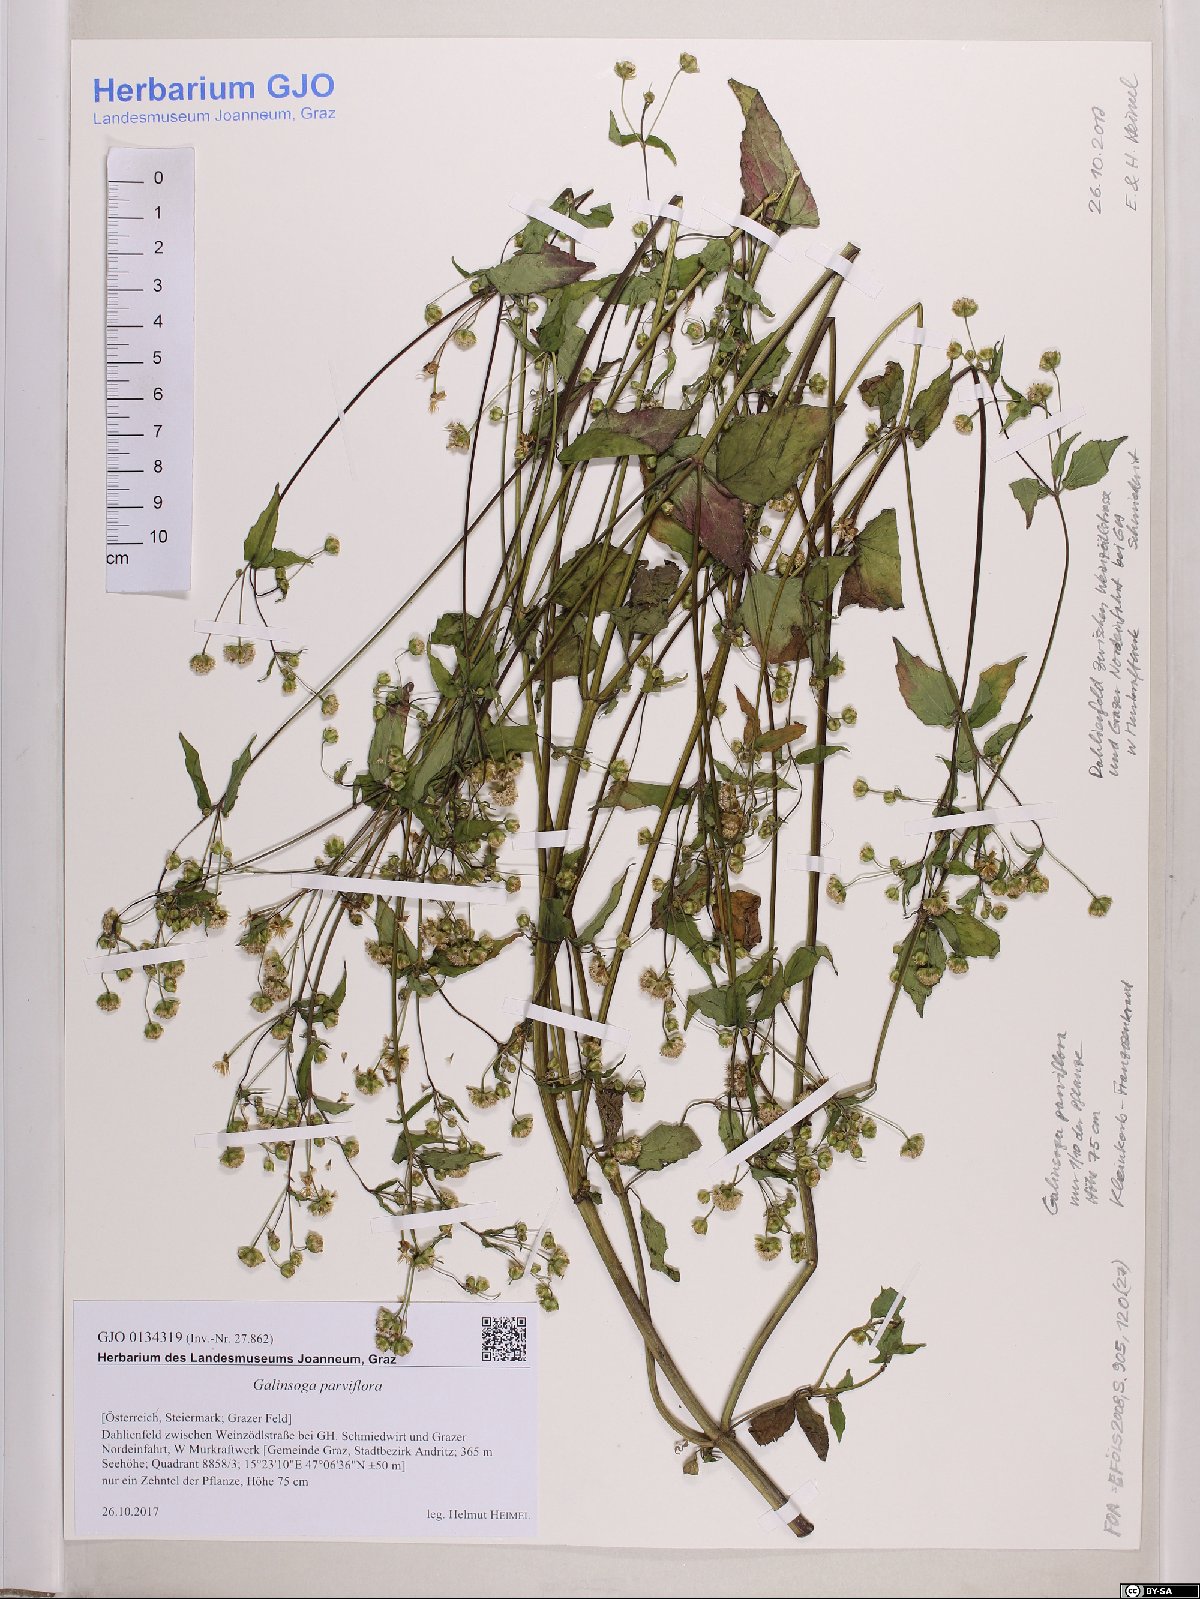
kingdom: Plantae
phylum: Tracheophyta
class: Magnoliopsida
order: Asterales
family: Asteraceae
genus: Galinsoga
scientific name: Galinsoga parviflora
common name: Gallant soldier
